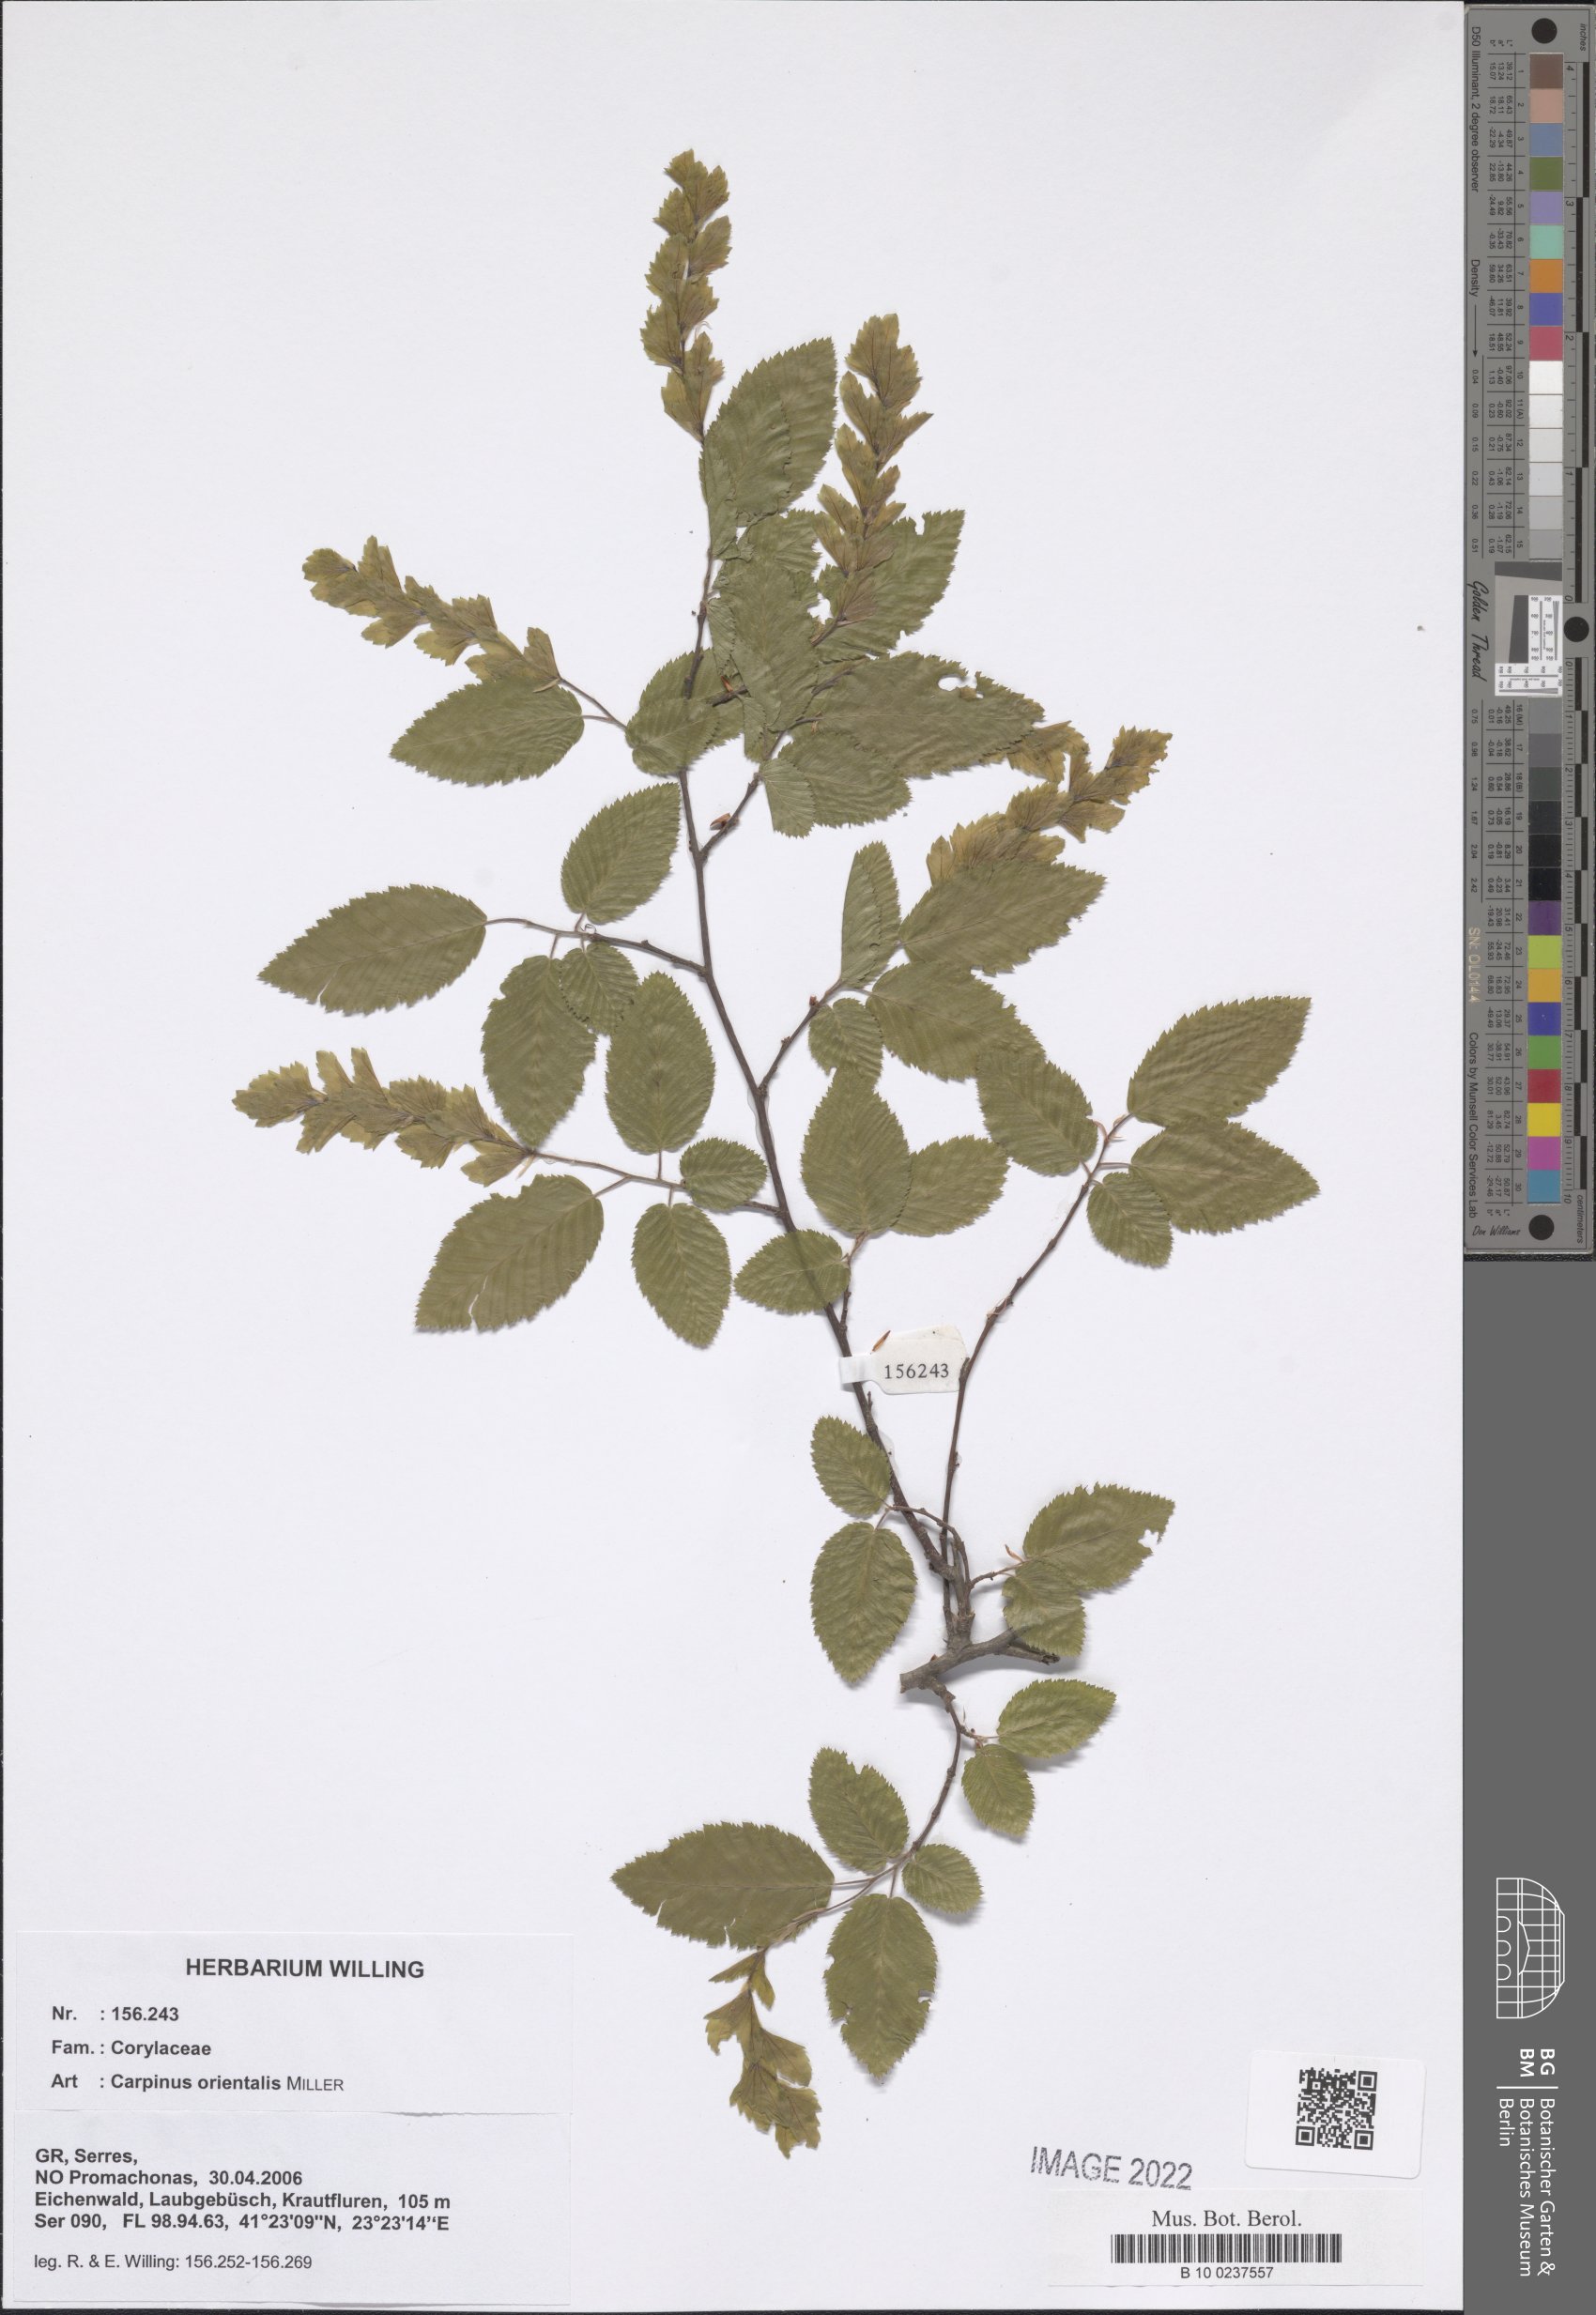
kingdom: Plantae
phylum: Tracheophyta
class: Magnoliopsida
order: Fagales
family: Betulaceae
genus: Carpinus
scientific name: Carpinus orientalis
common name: Eastern hornbeam
